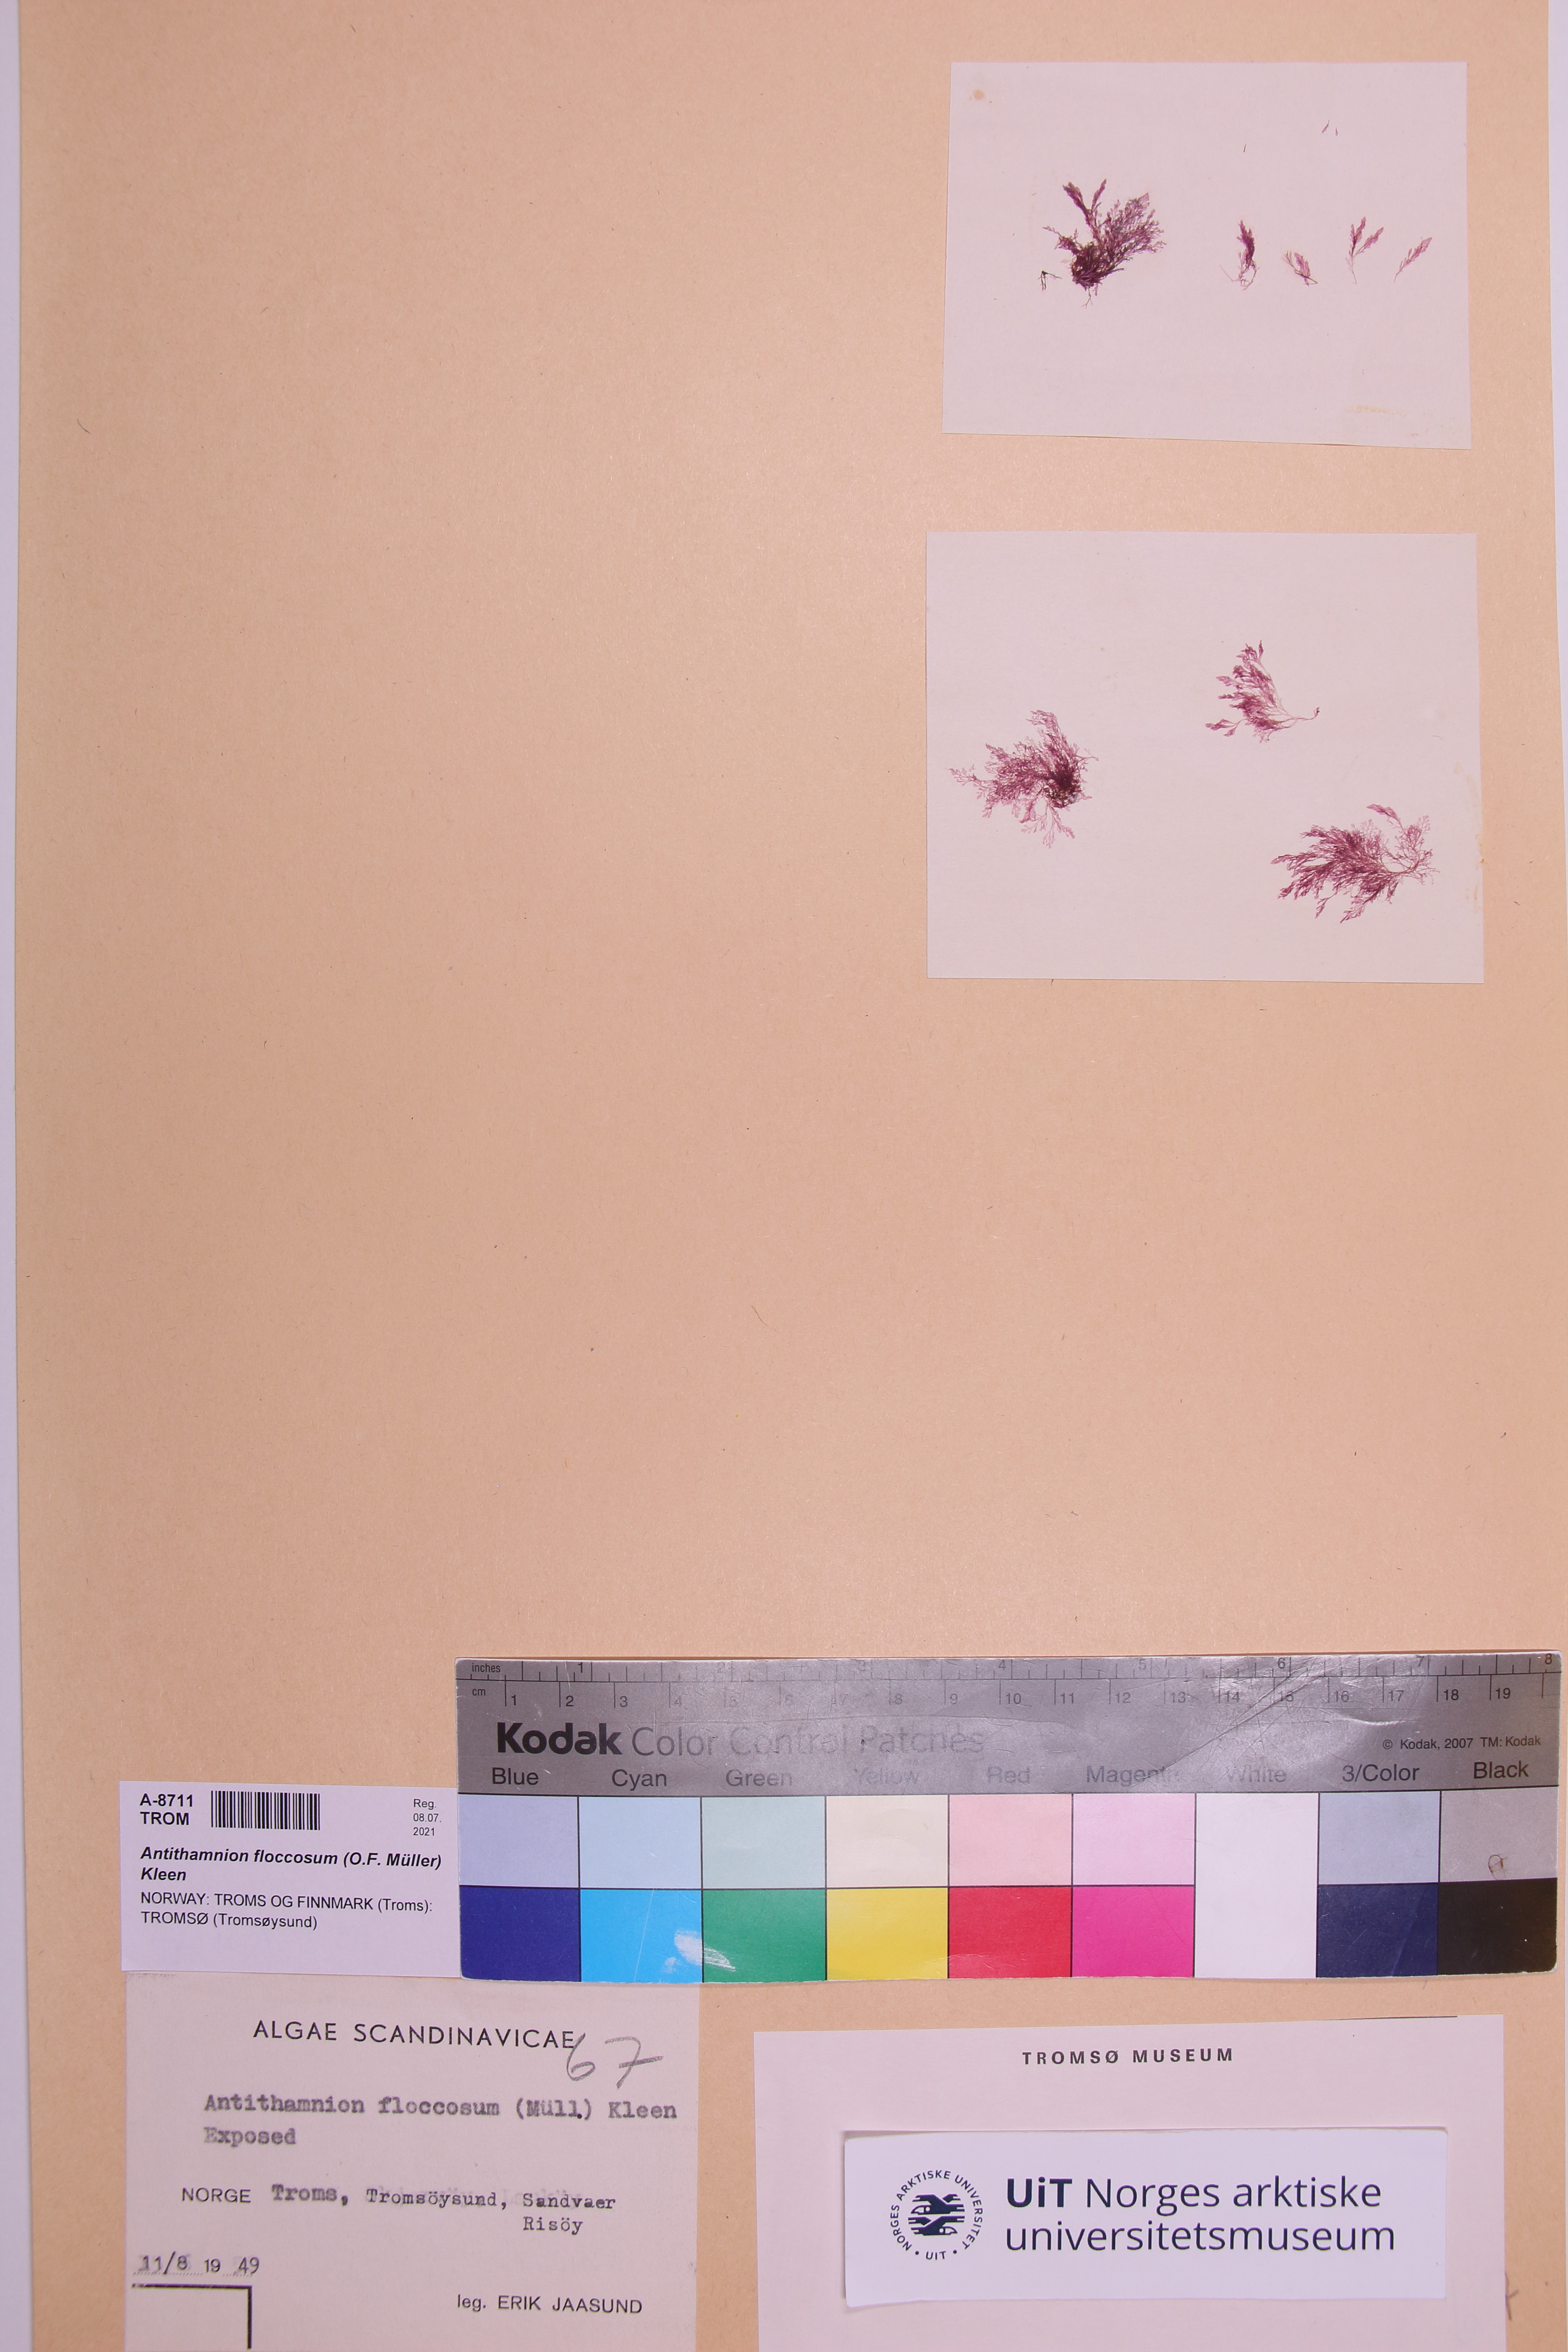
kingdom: Plantae
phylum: Rhodophyta
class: Florideophyceae
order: Ceramiales
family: Ceramiaceae
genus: Antithamnionella
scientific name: Antithamnionella floccosa
